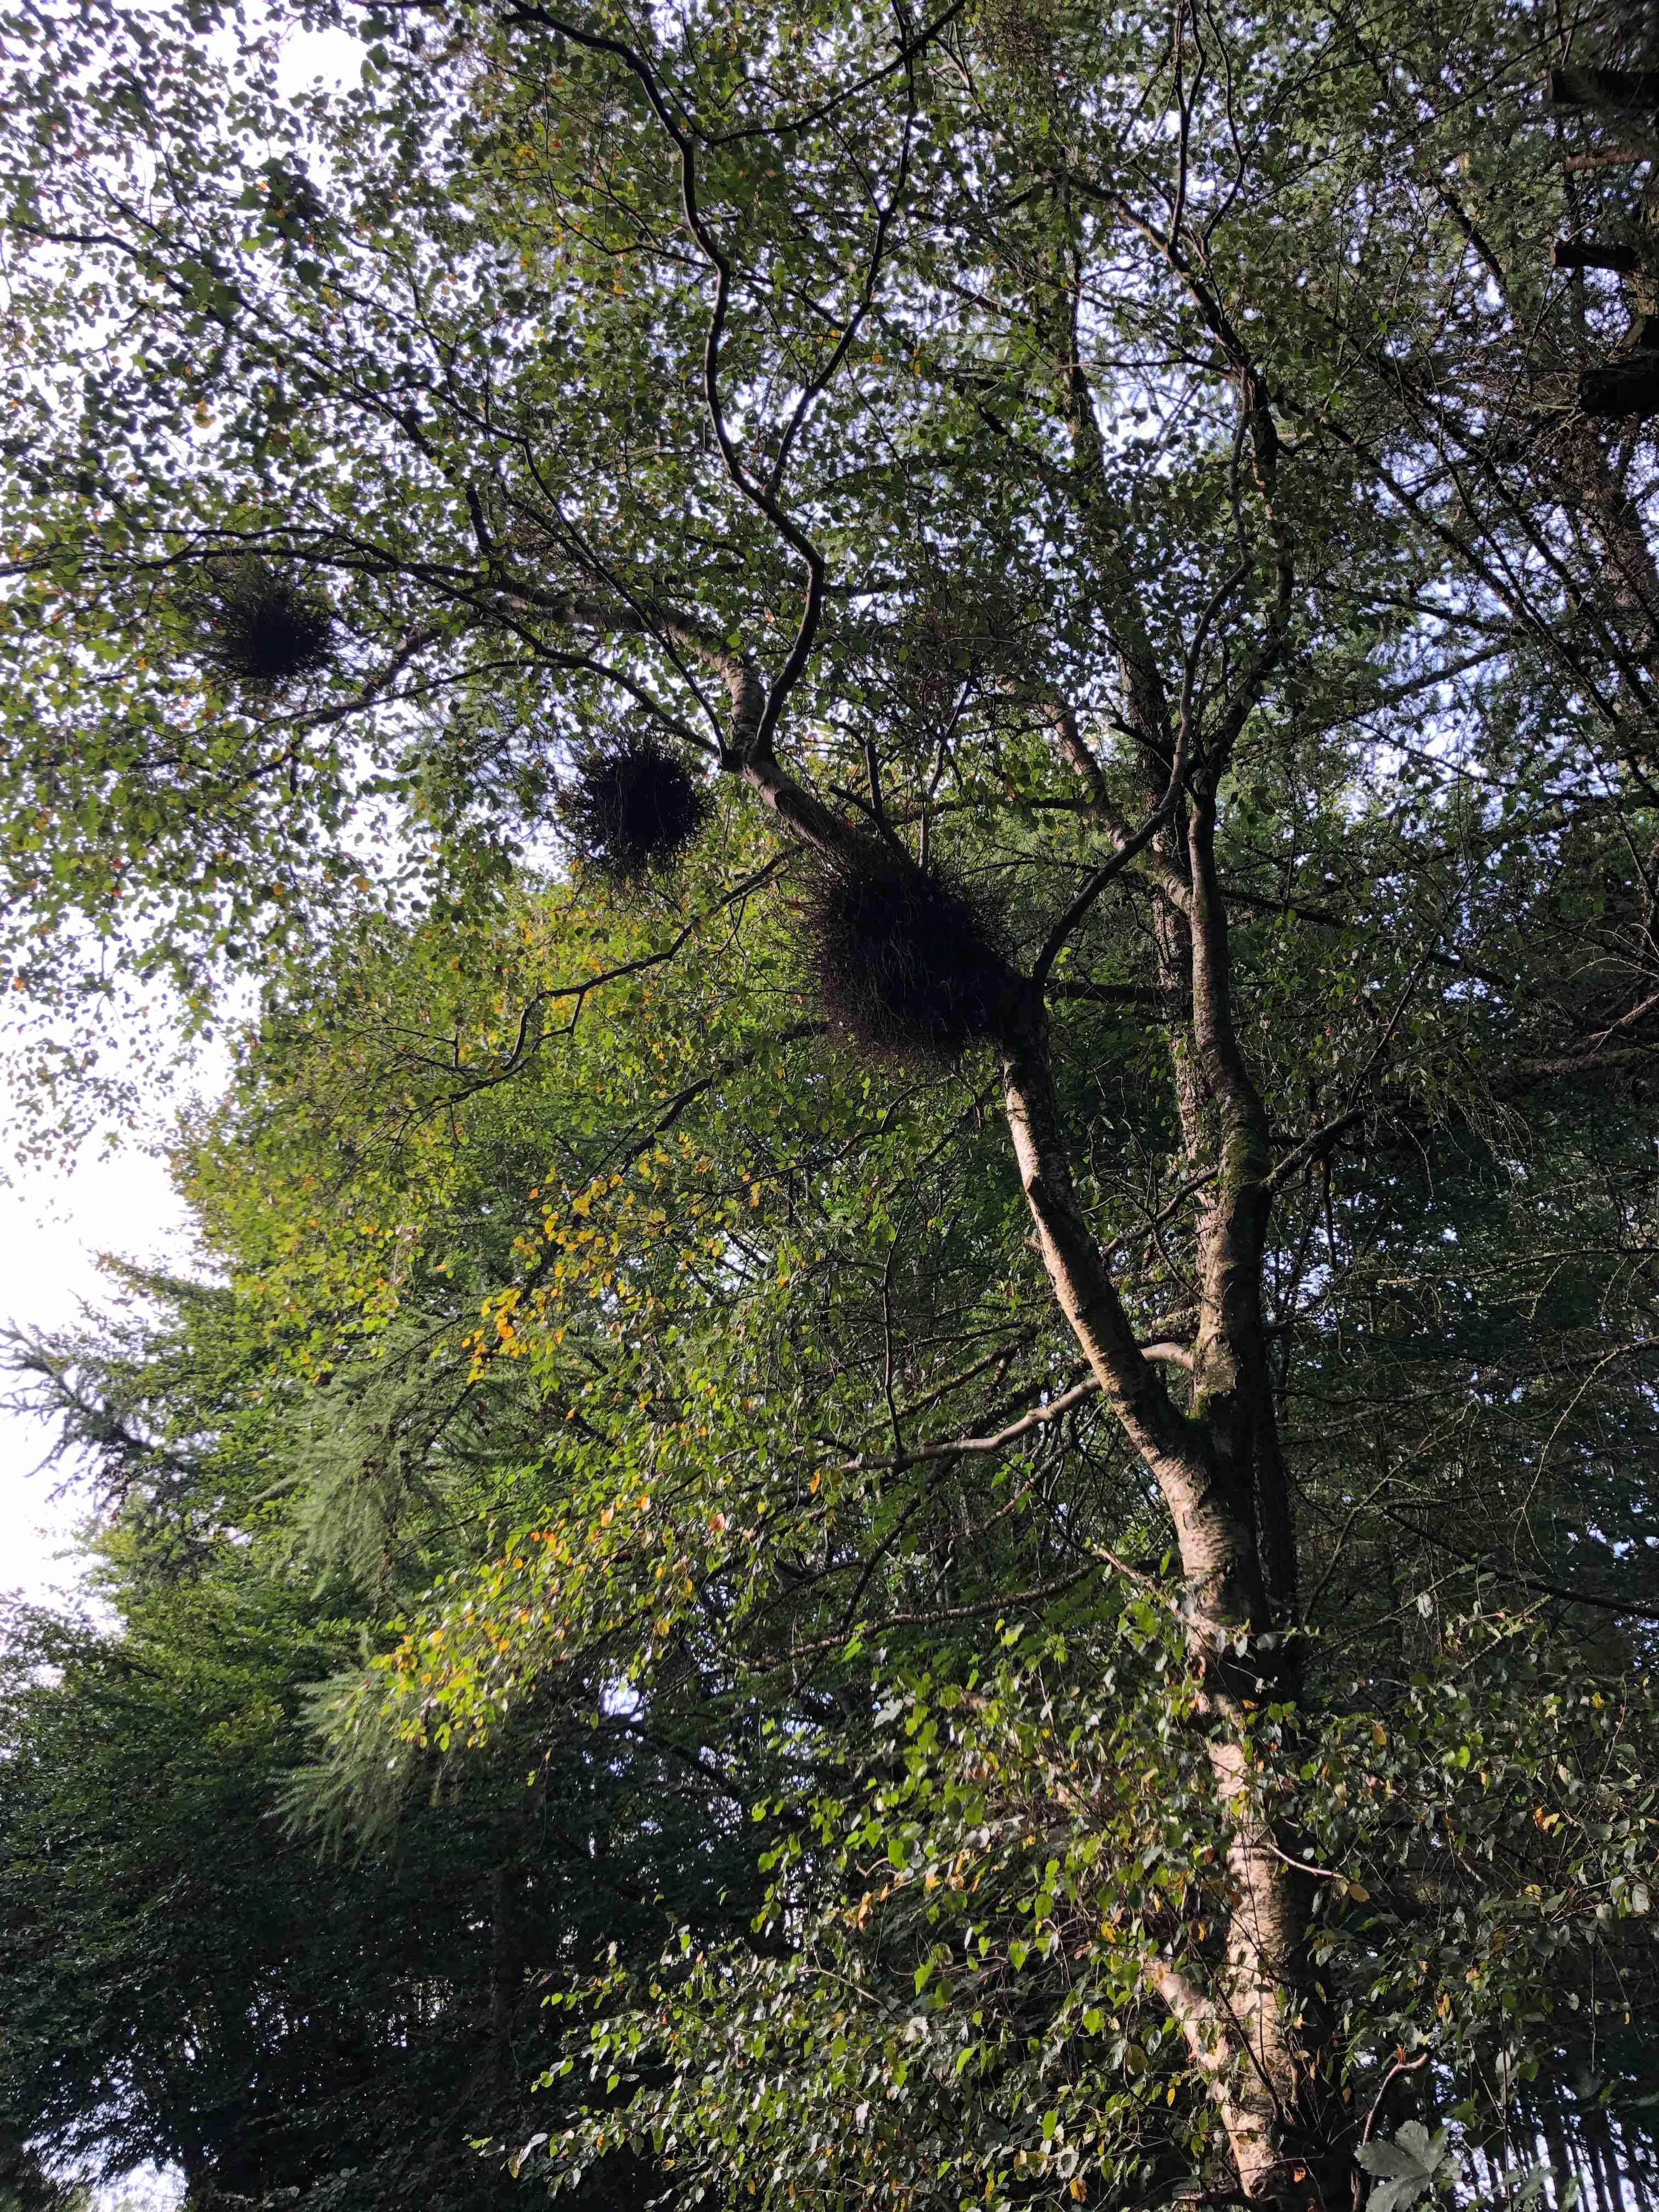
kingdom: Fungi
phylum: Ascomycota
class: Taphrinomycetes
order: Taphrinales
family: Taphrinaceae
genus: Taphrina
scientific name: Taphrina betulina
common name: hekse-sækdug
